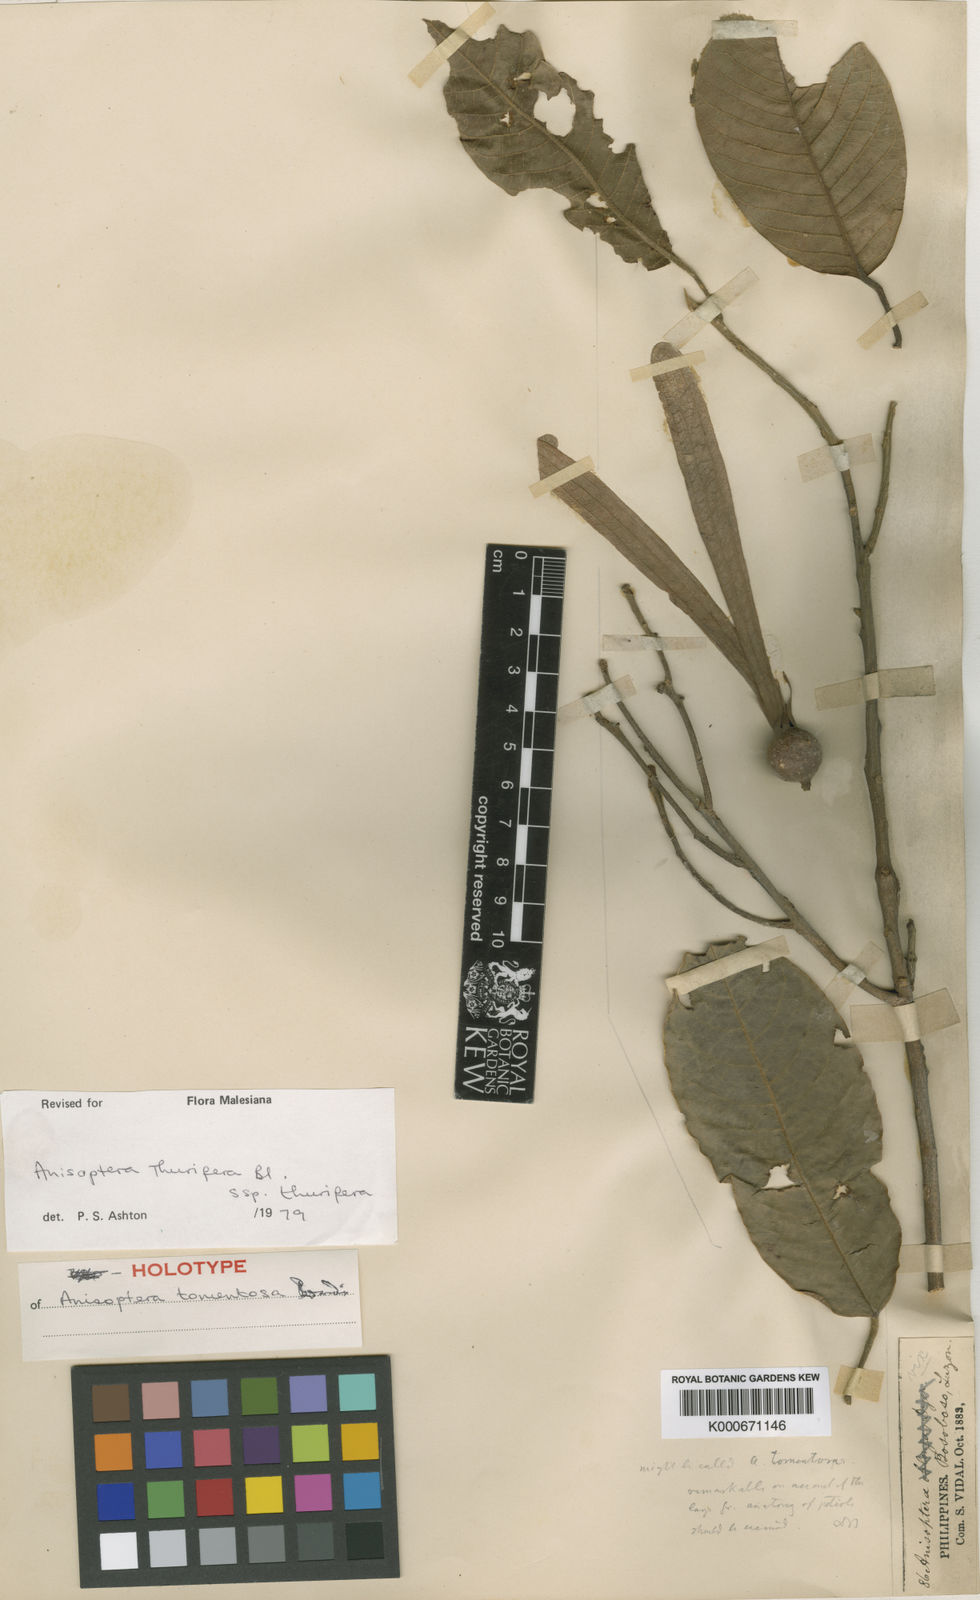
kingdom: Plantae
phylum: Tracheophyta
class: Magnoliopsida
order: Malvales
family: Dipterocarpaceae
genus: Anisoptera
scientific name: Anisoptera thurifera
